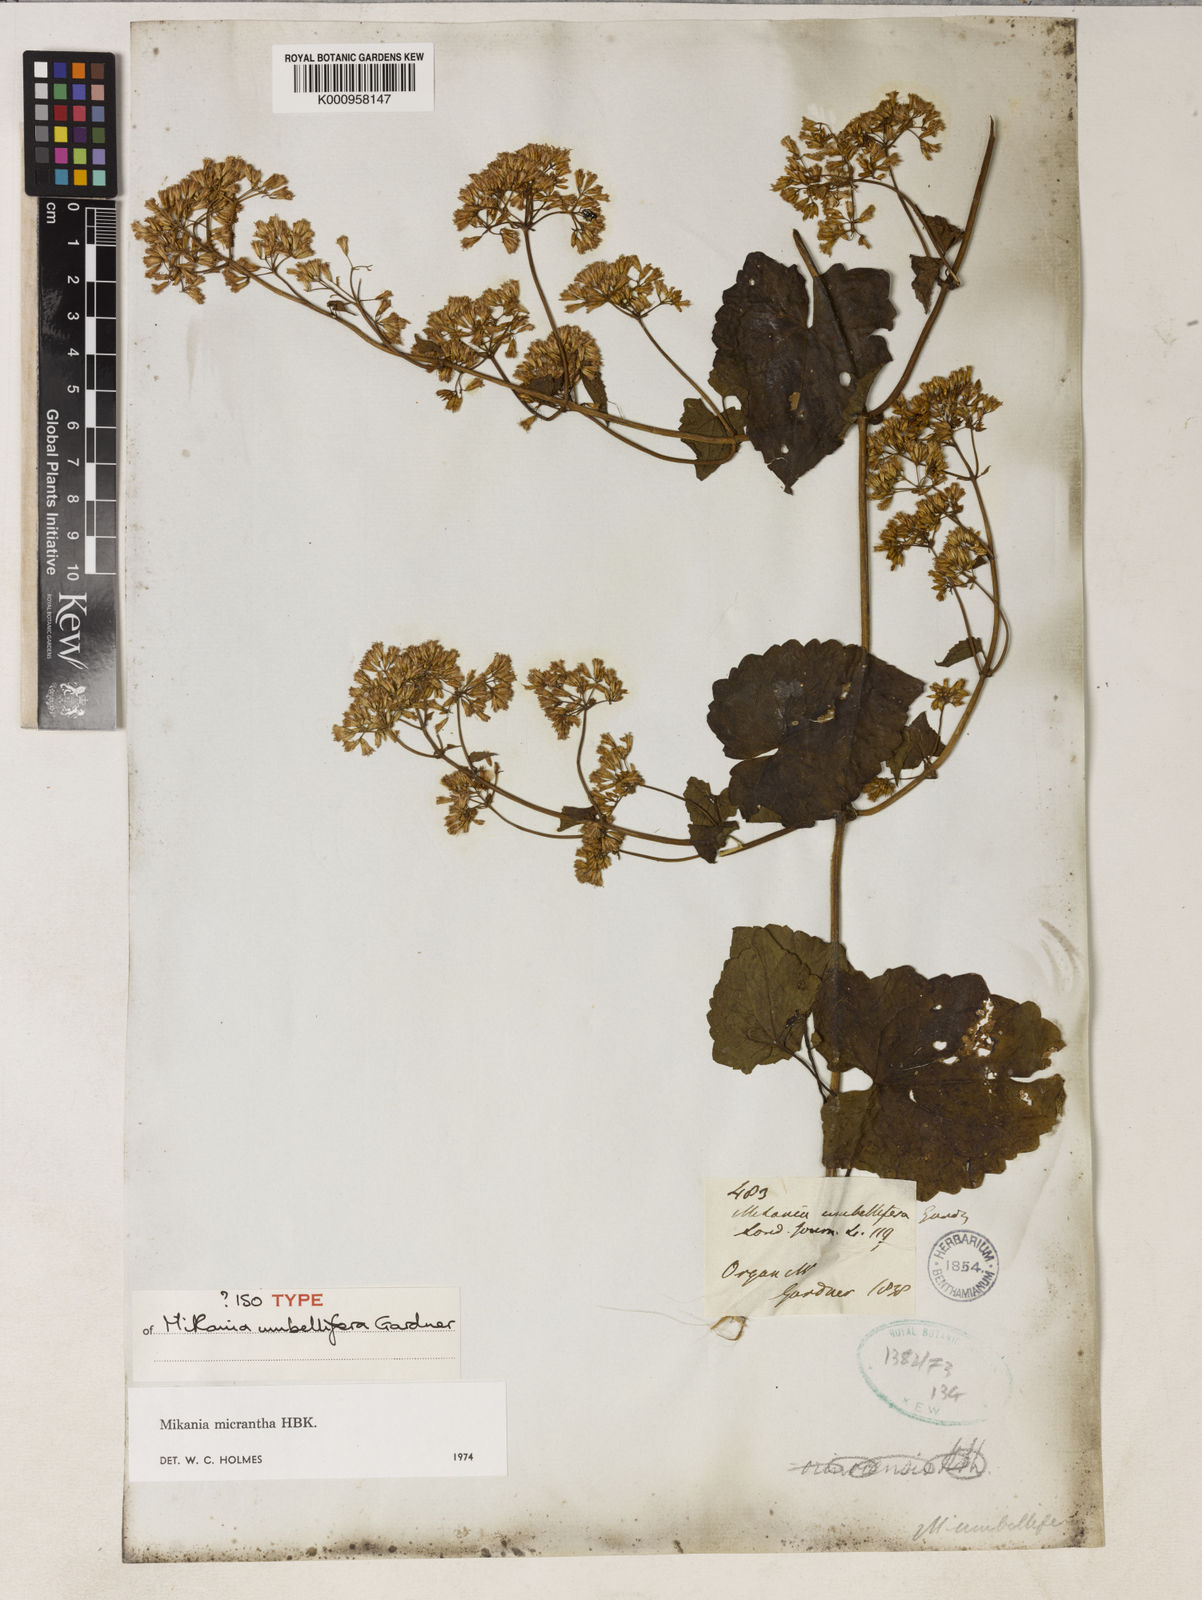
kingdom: Plantae
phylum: Tracheophyta
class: Magnoliopsida
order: Asterales
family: Asteraceae
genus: Mikania
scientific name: Mikania micrantha
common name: Mile-a-minute
